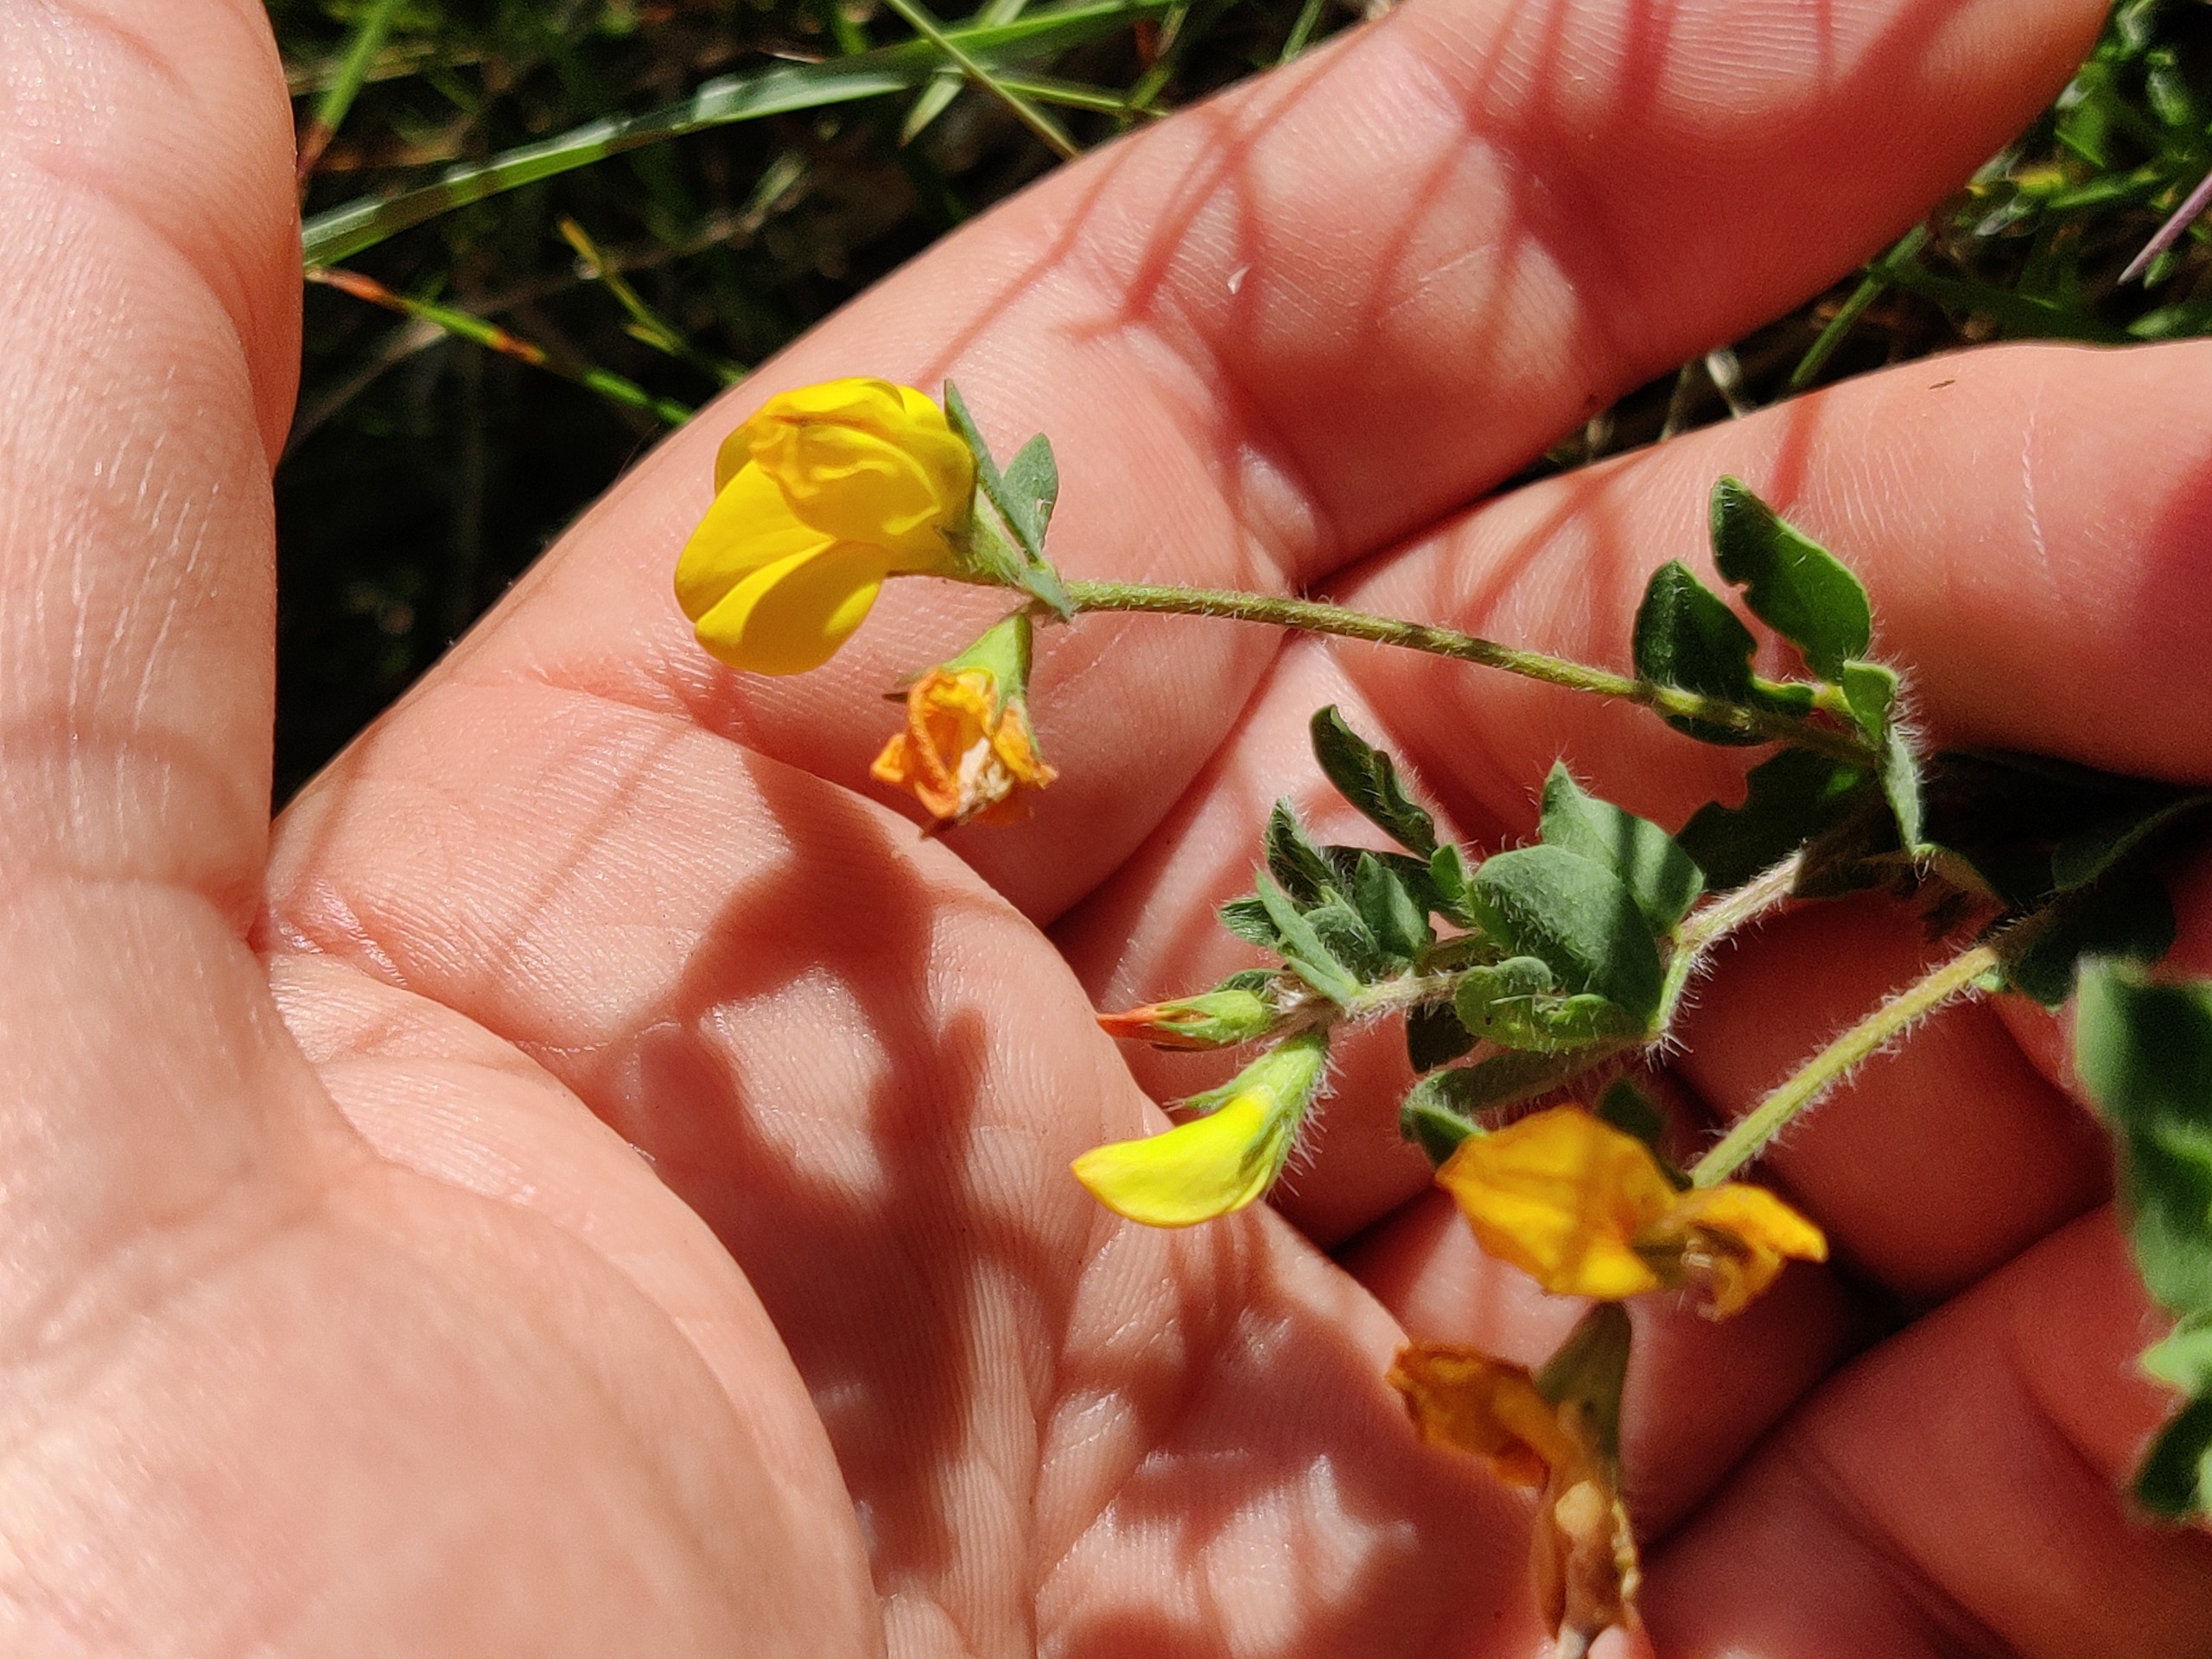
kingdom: Plantae
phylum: Tracheophyta
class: Magnoliopsida
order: Fabales
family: Fabaceae
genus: Lotus
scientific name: Lotus corniculatus
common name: Almindelig kællingetand
